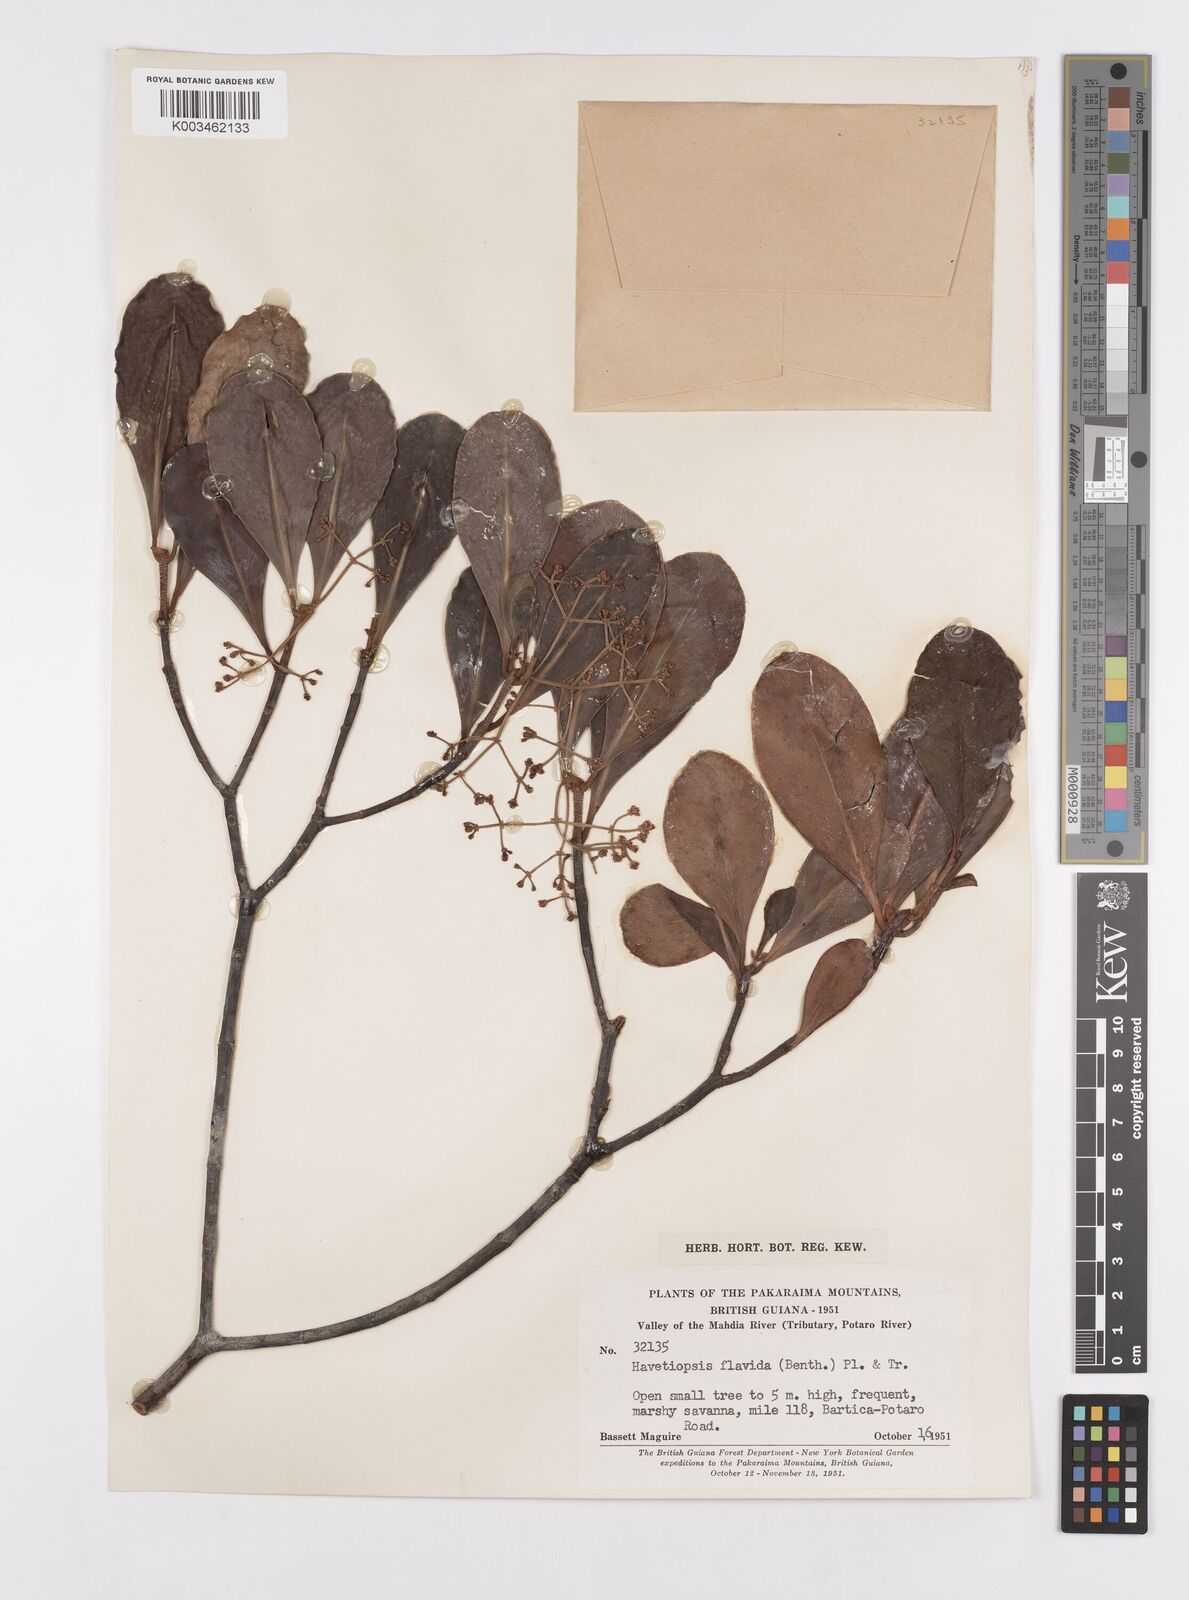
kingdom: Plantae
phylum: Tracheophyta
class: Magnoliopsida
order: Malpighiales
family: Clusiaceae
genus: Clusia
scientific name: Clusia flavida
